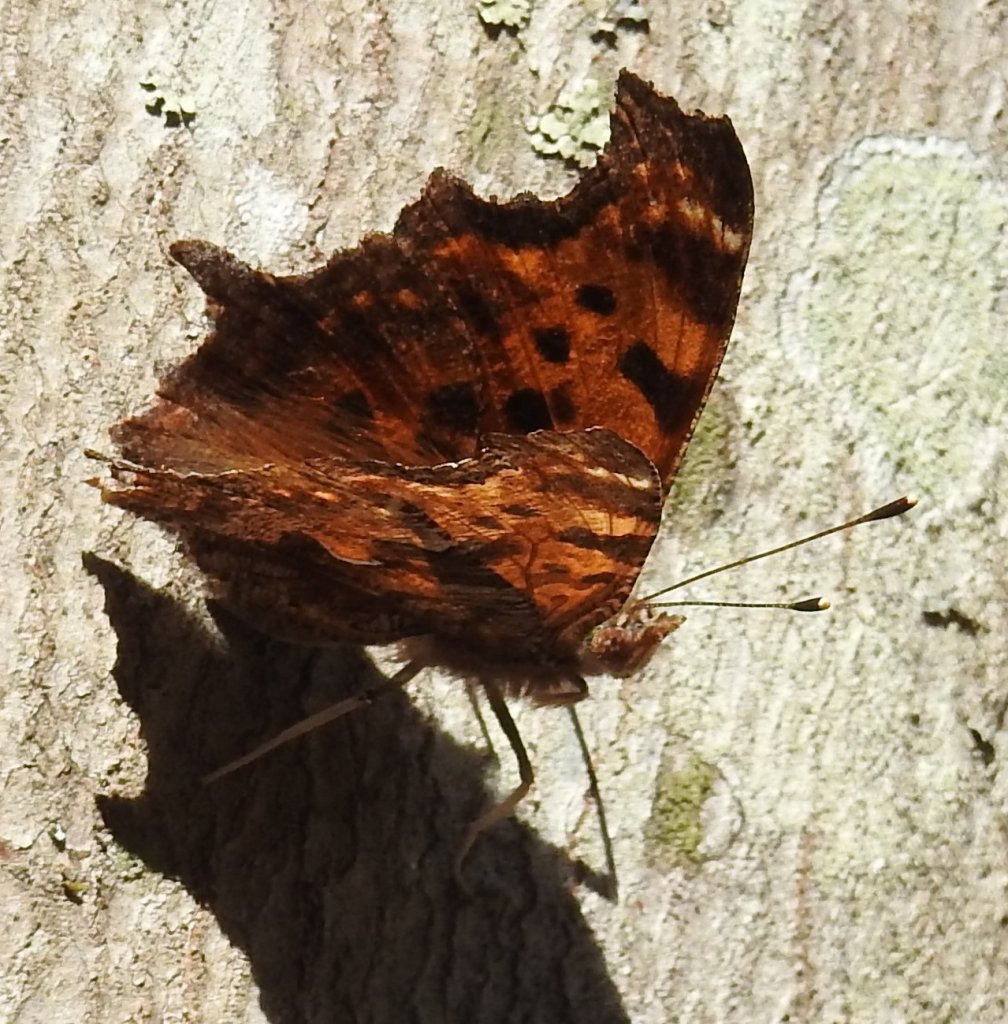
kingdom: Animalia
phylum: Arthropoda
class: Insecta
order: Lepidoptera
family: Nymphalidae
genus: Polygonia
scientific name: Polygonia comma
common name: Eastern Comma
